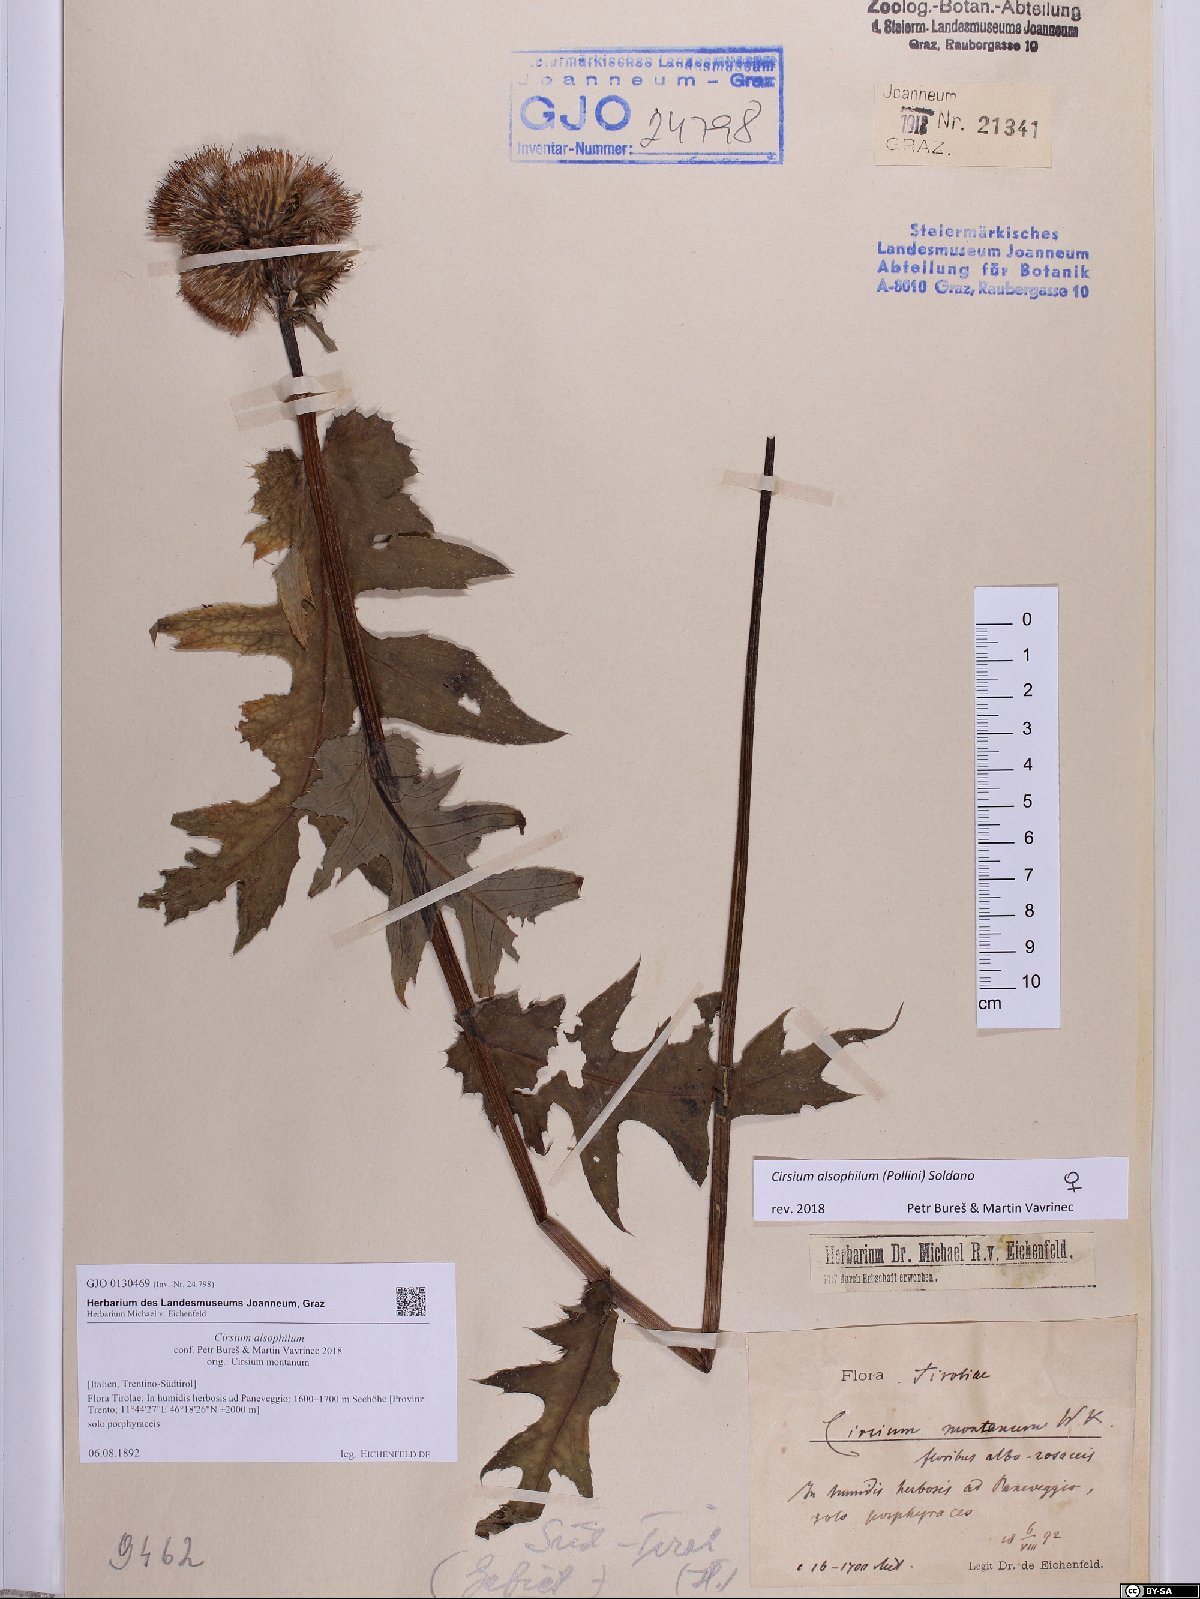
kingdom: Plantae
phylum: Tracheophyta
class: Magnoliopsida
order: Asterales
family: Asteraceae
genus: Cirsium
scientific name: Cirsium alsophilum
